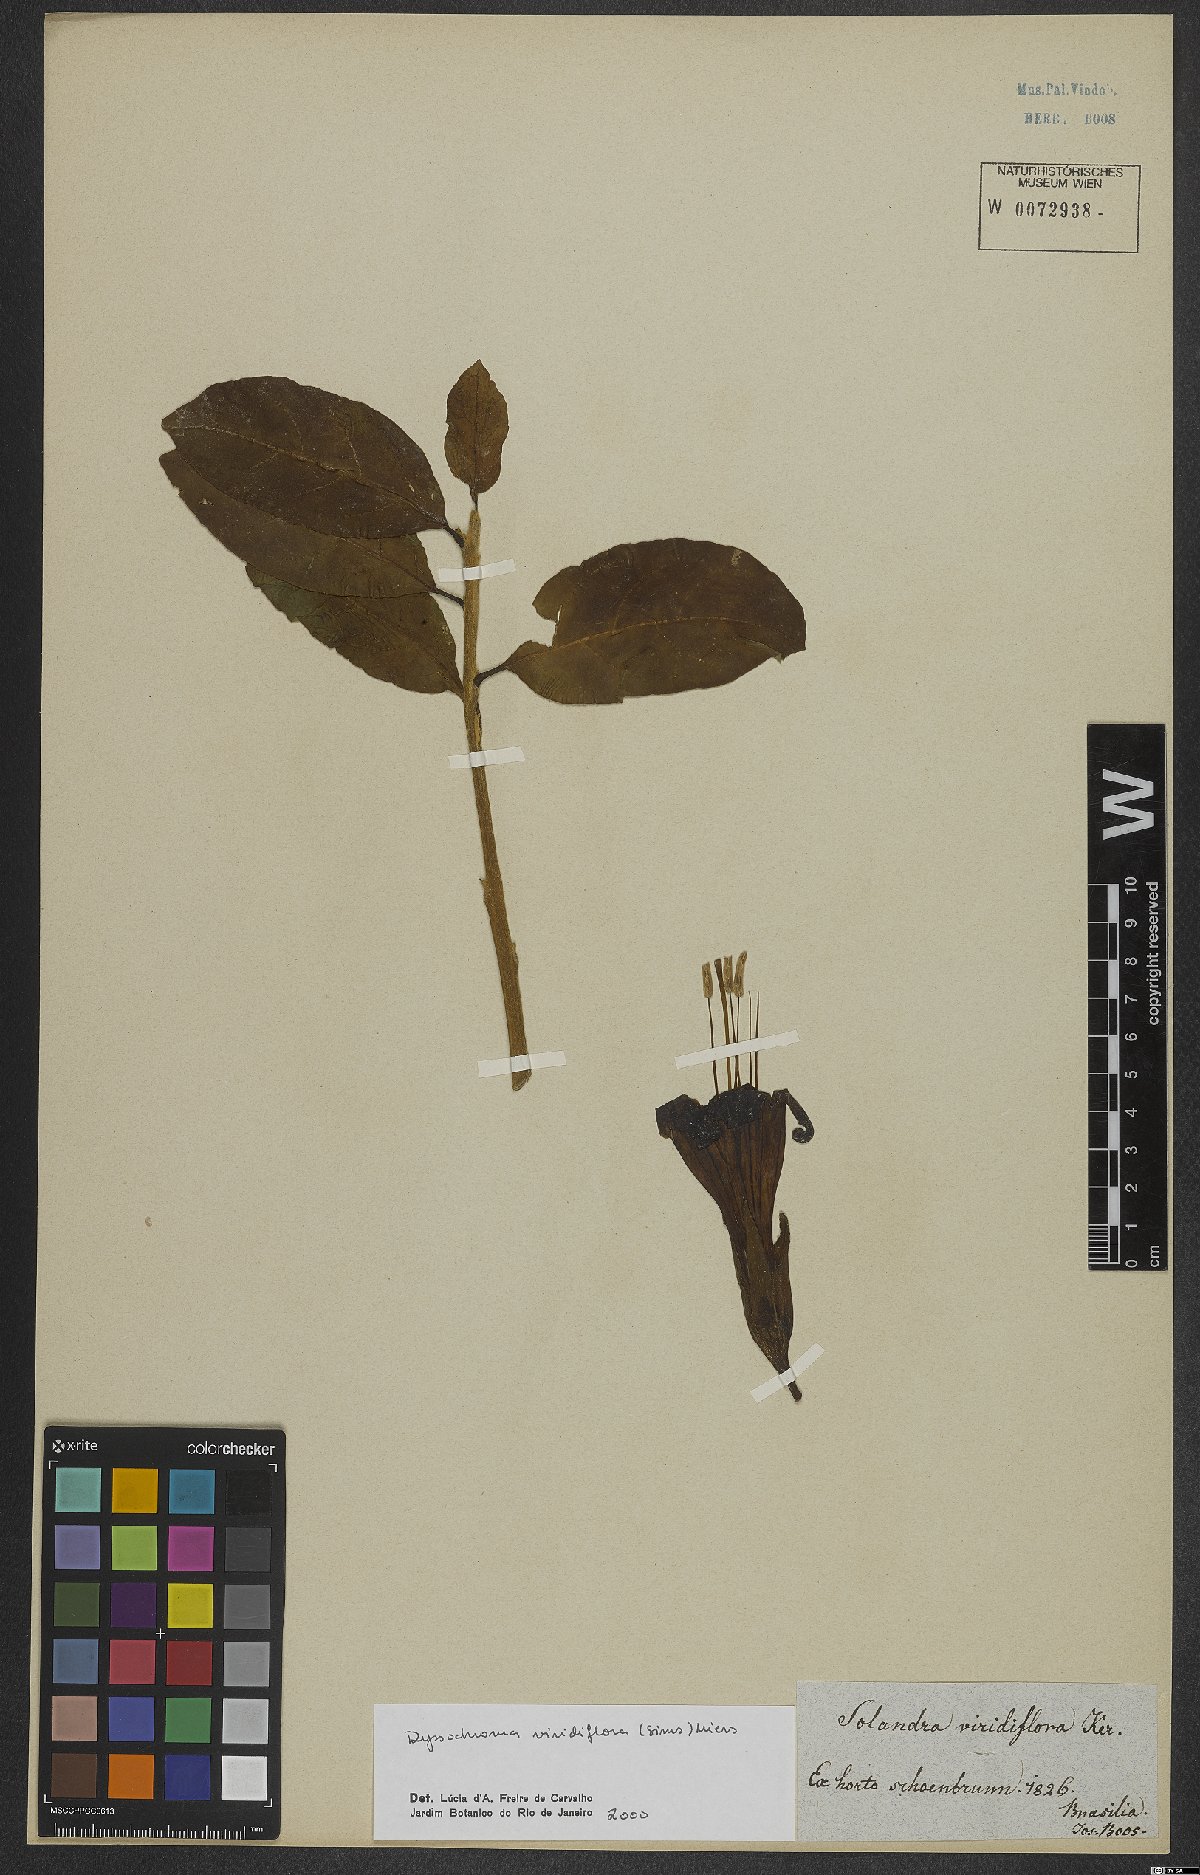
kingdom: Plantae
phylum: Tracheophyta
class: Magnoliopsida
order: Solanales
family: Solanaceae
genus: Dyssochroma
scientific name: Dyssochroma viridiflorum
